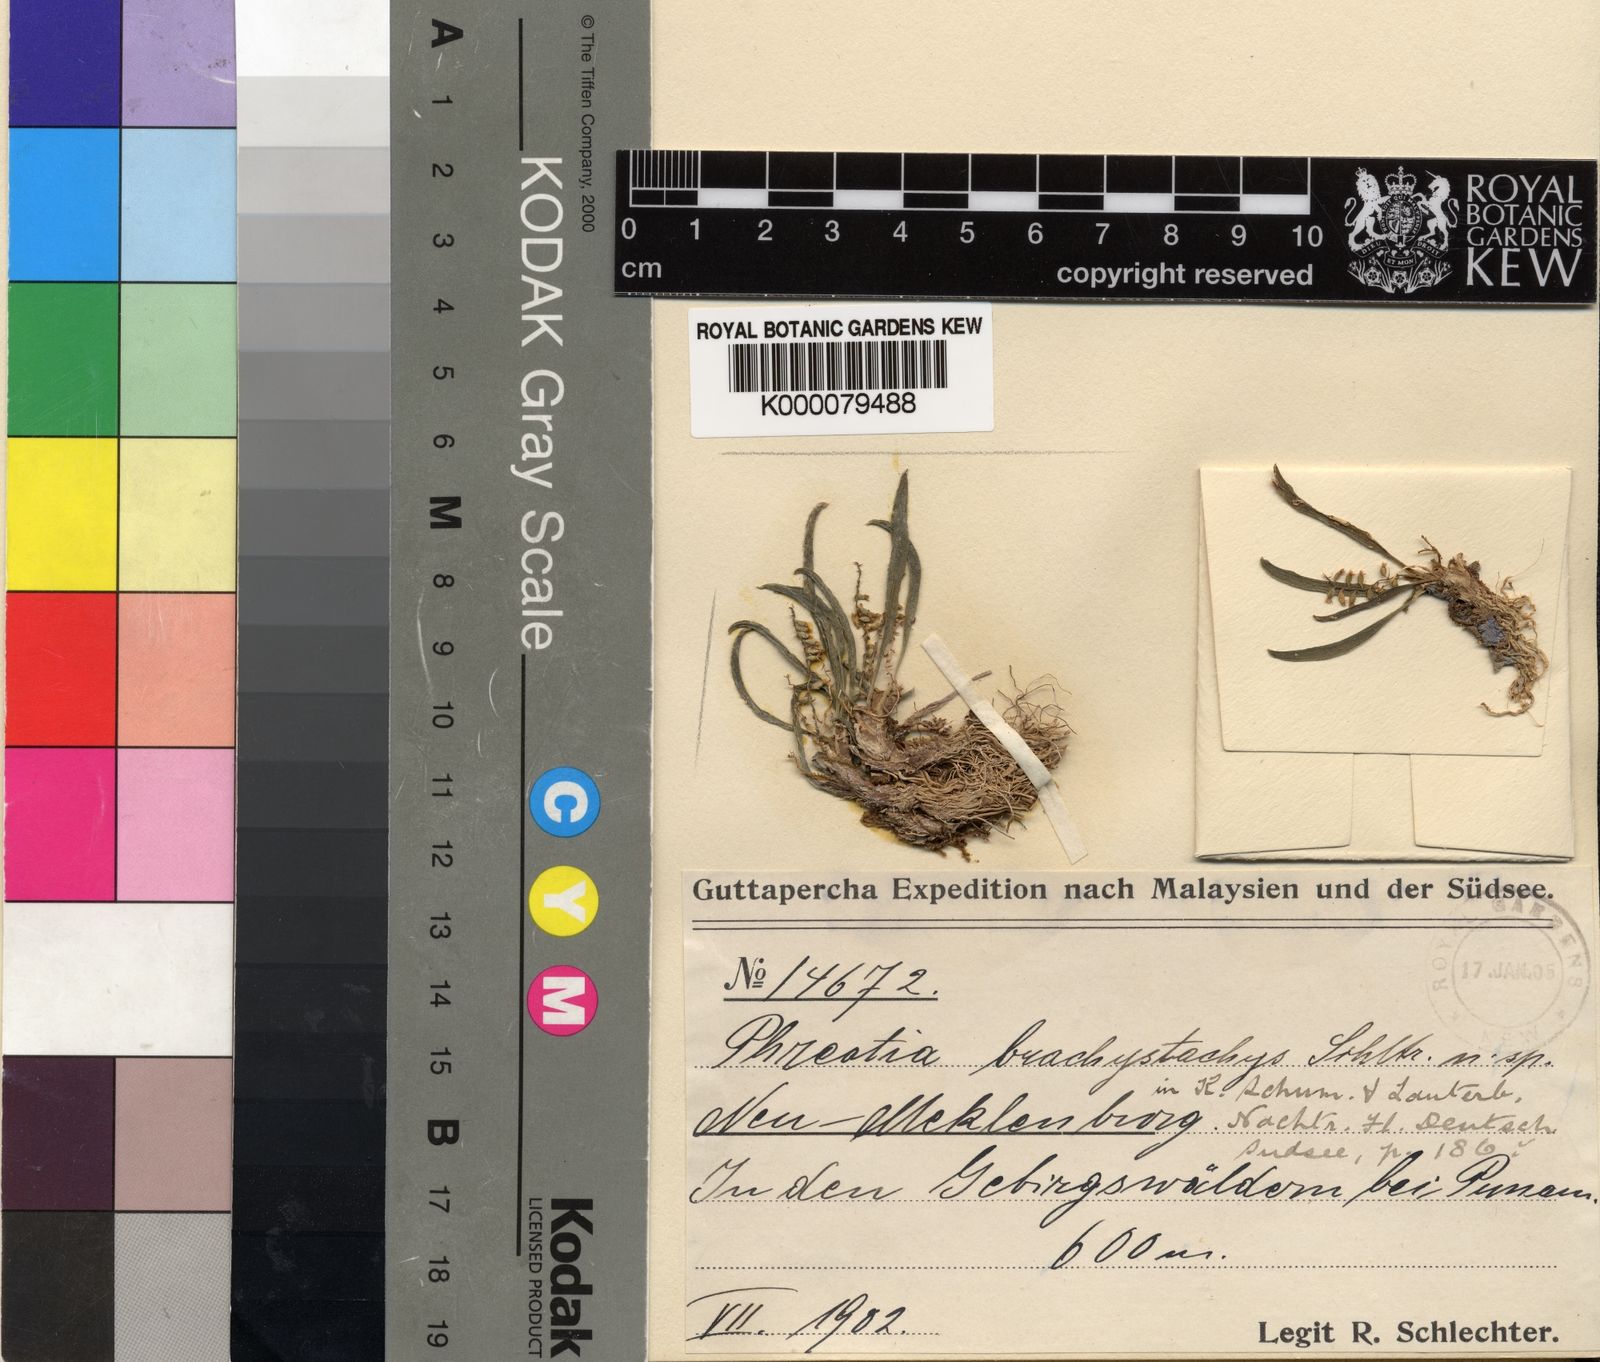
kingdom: Plantae
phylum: Tracheophyta
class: Liliopsida
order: Asparagales
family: Orchidaceae
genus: Phreatia
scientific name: Phreatia brachystachys
